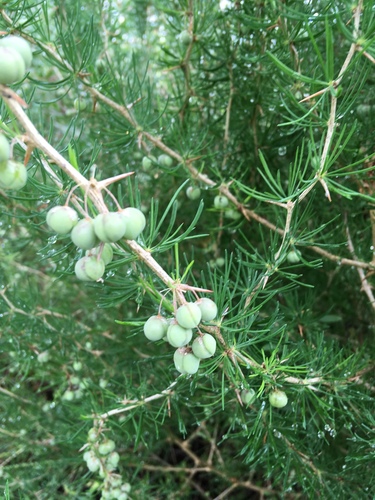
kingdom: Plantae
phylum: Tracheophyta
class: Liliopsida
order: Asparagales
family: Asparagaceae
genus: Asparagus
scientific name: Asparagus albus
